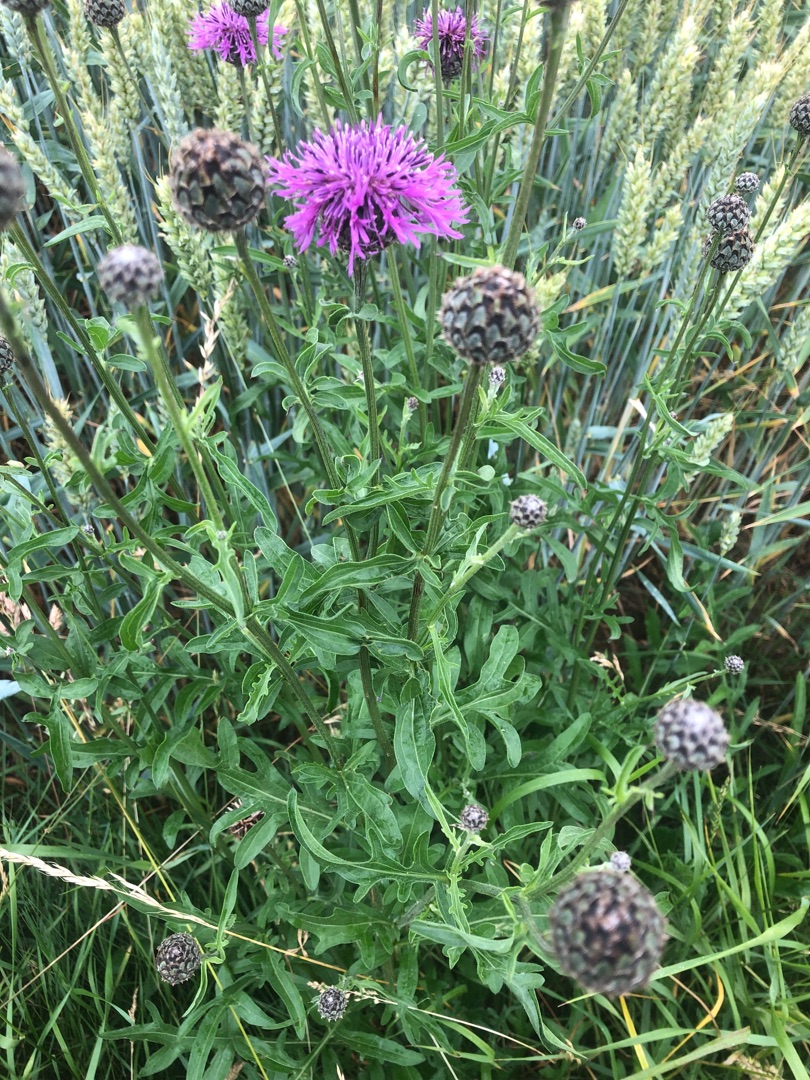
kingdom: Plantae
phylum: Tracheophyta
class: Magnoliopsida
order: Asterales
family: Asteraceae
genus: Centaurea
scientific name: Centaurea scabiosa
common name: Stor knopurt
